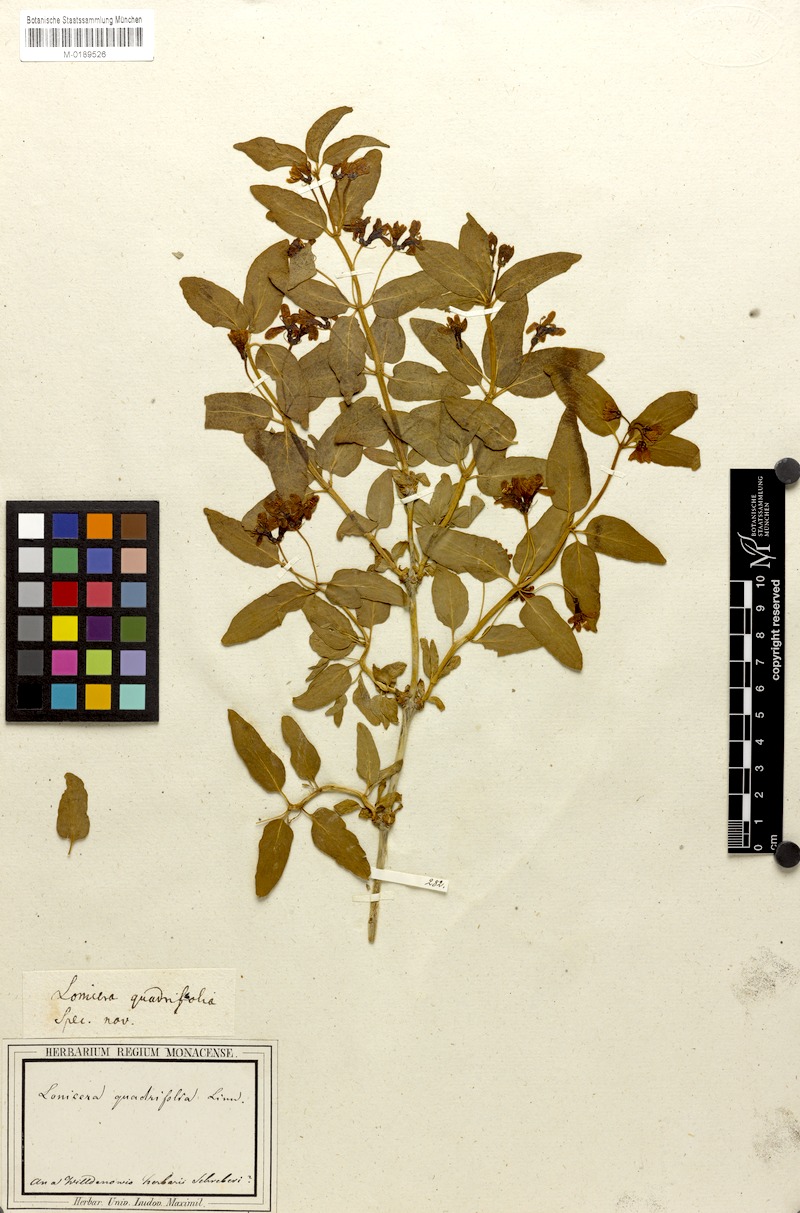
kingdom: Plantae
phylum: Tracheophyta
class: Magnoliopsida
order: Dipsacales
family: Caprifoliaceae
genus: Lonicera
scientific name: Lonicera quadrifolia
